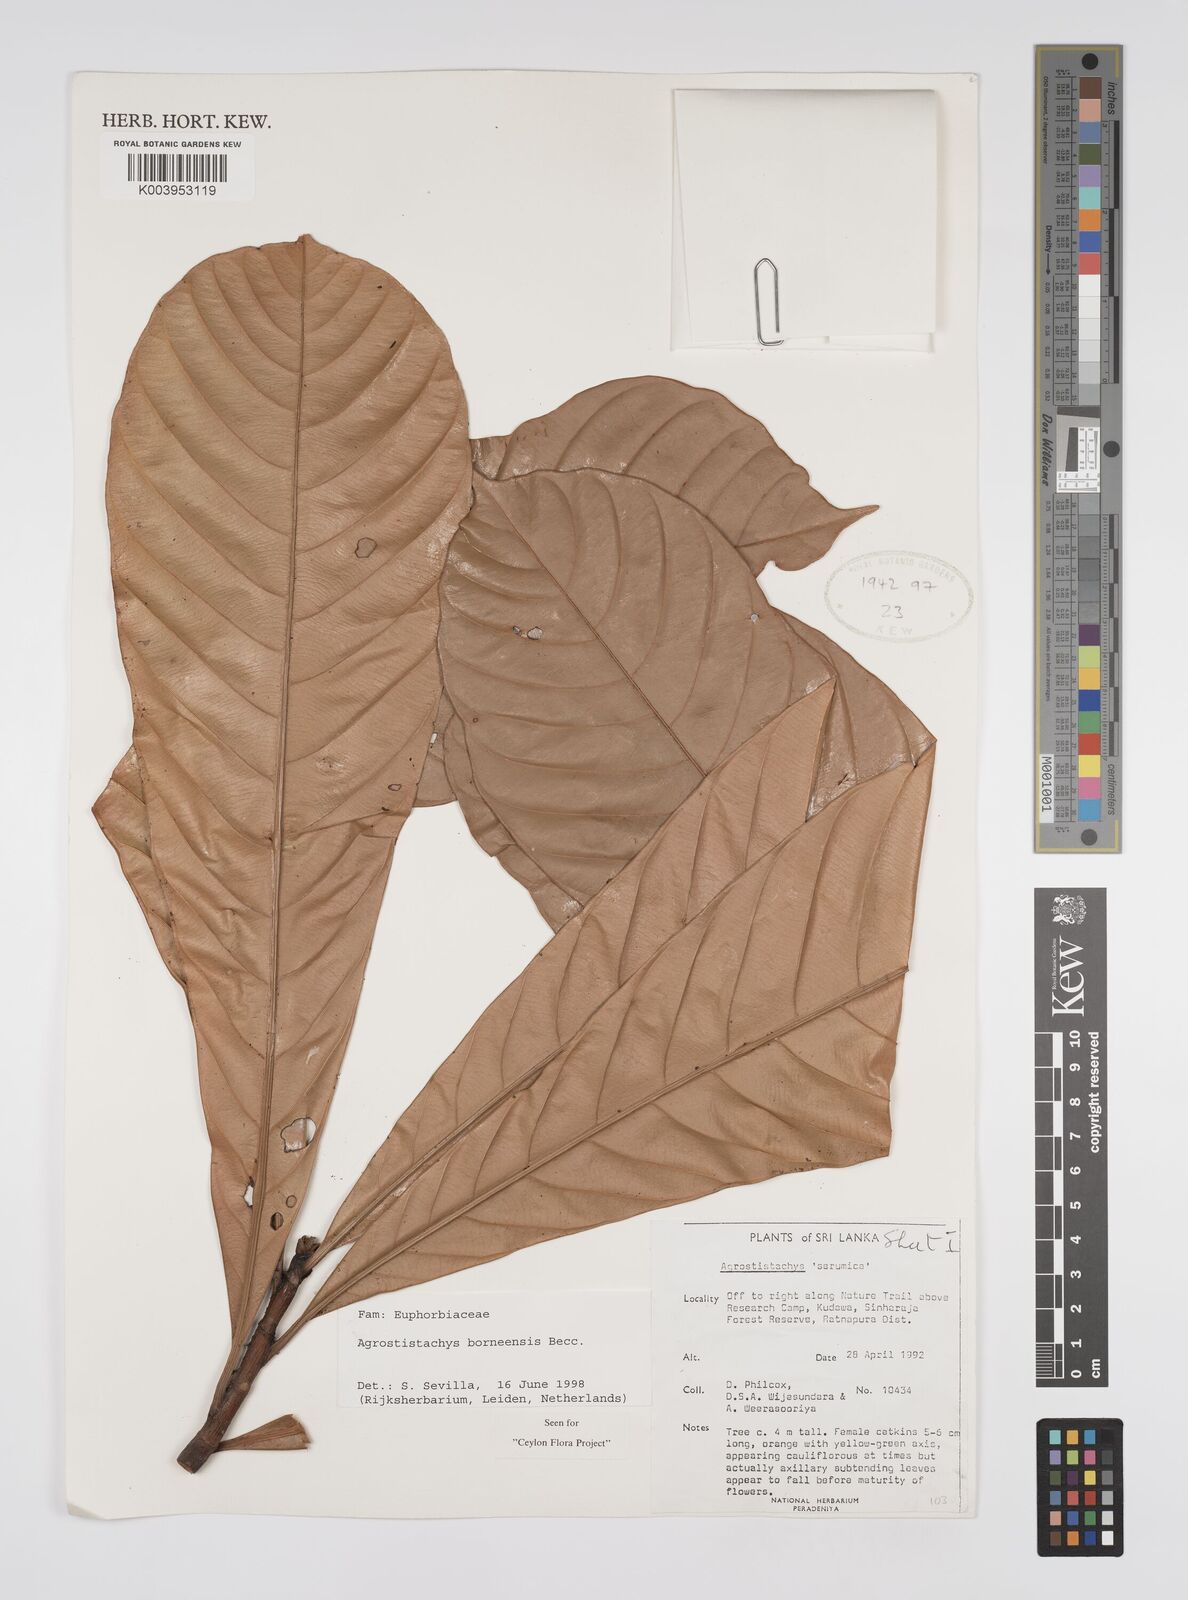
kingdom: Plantae
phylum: Tracheophyta
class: Magnoliopsida
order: Malpighiales
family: Euphorbiaceae
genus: Agrostistachys
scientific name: Agrostistachys borneensis
